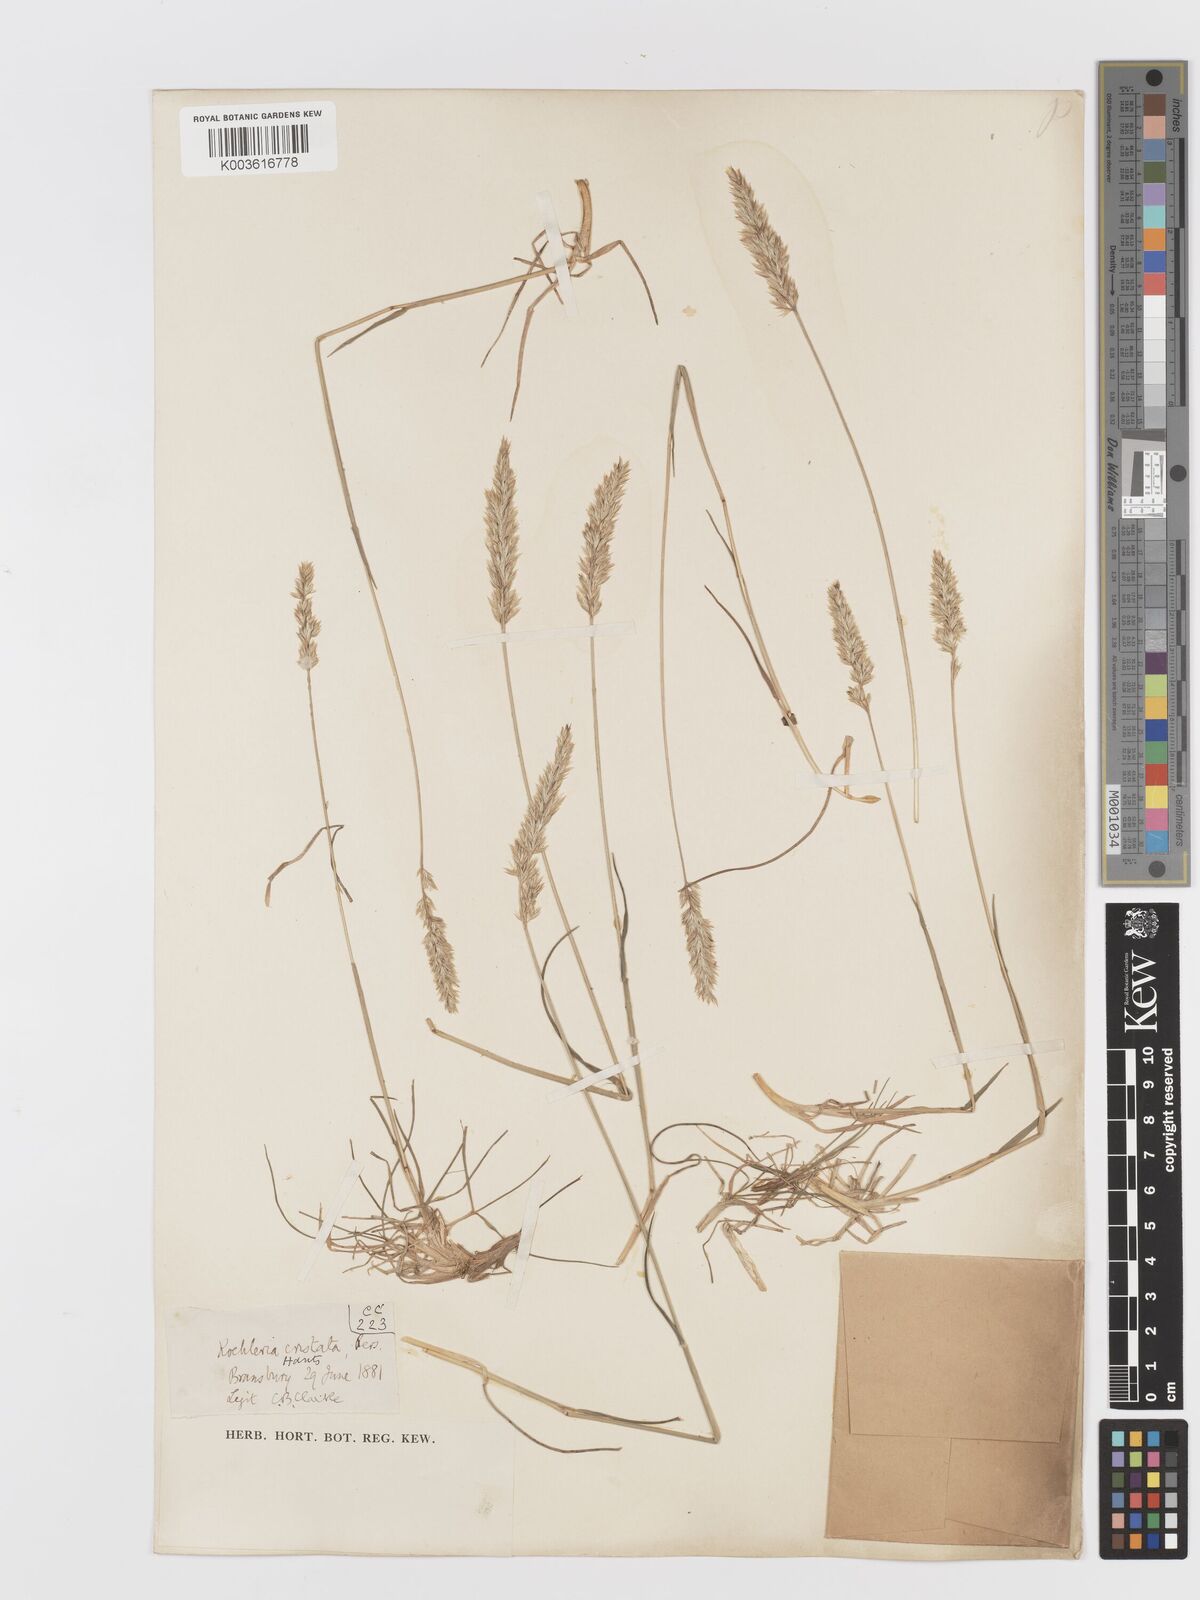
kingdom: Plantae
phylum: Tracheophyta
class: Liliopsida
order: Poales
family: Poaceae
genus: Koeleria
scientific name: Koeleria macrantha
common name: Crested hair-grass
